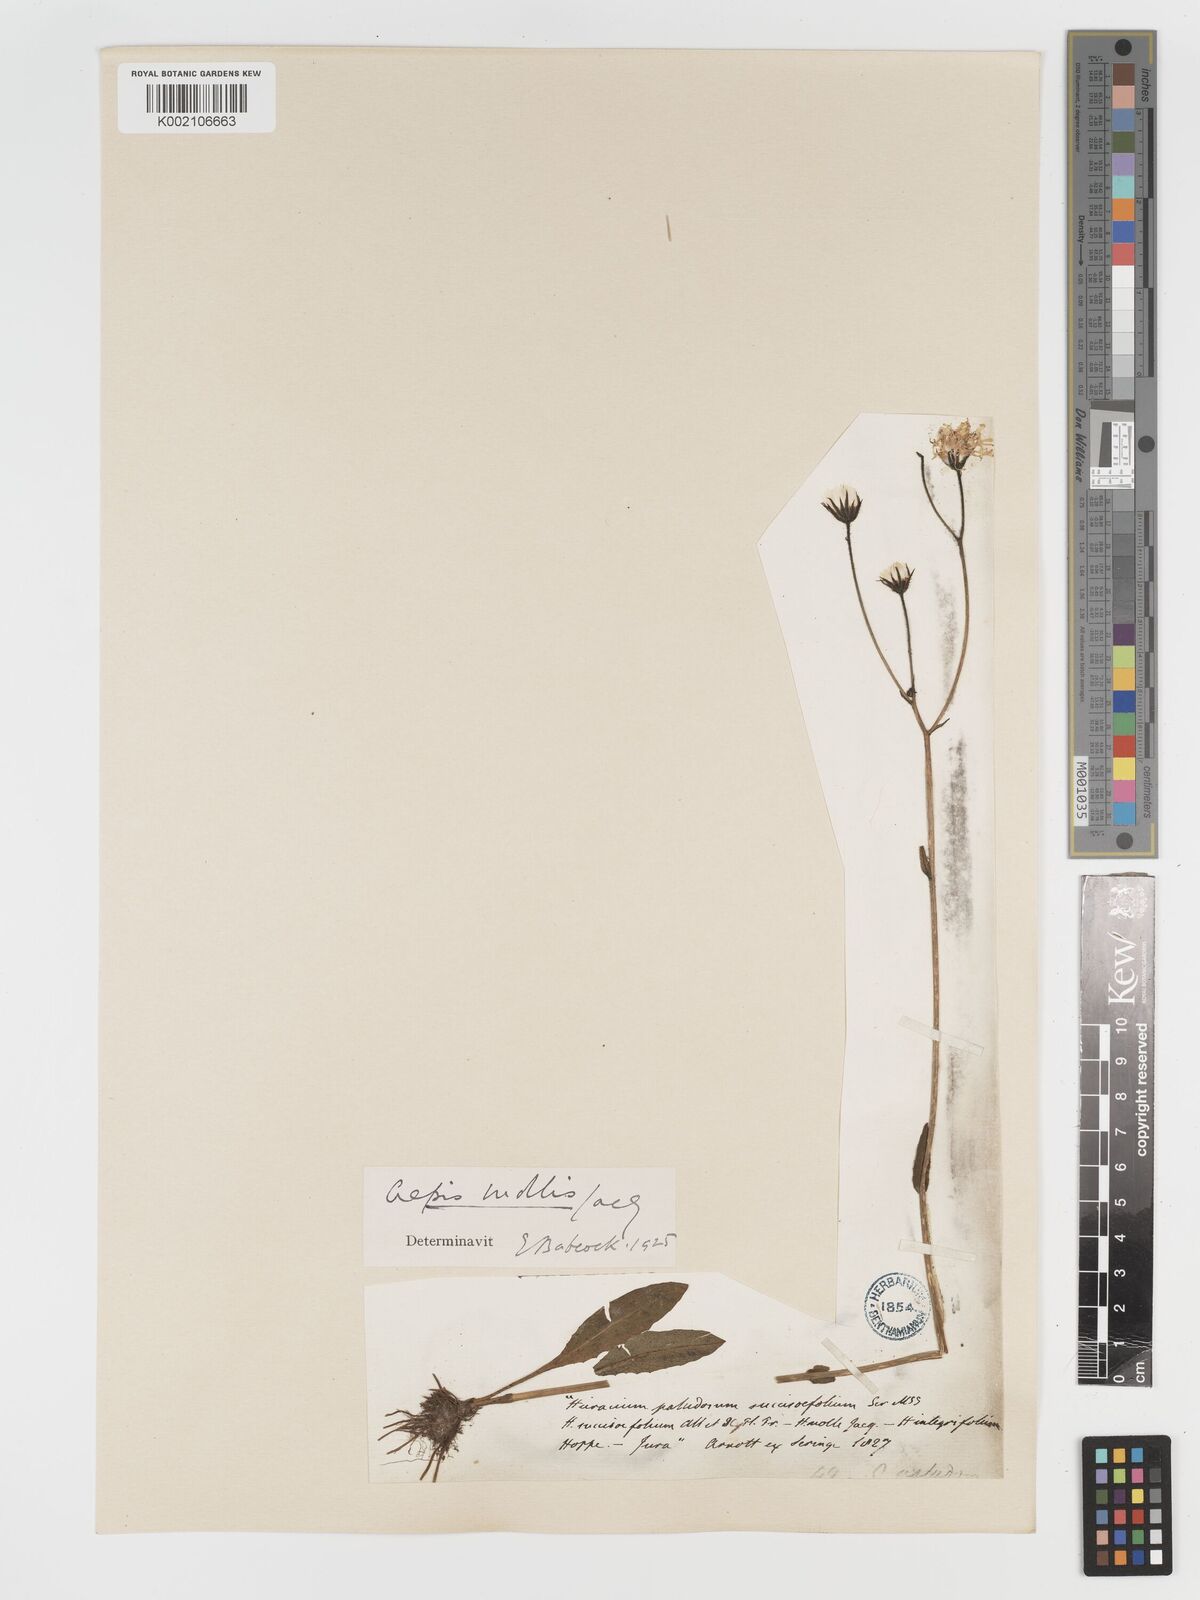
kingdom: Plantae
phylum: Tracheophyta
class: Magnoliopsida
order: Asterales
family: Asteraceae
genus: Crepis
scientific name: Crepis mollis
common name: Northern hawk's-beard
